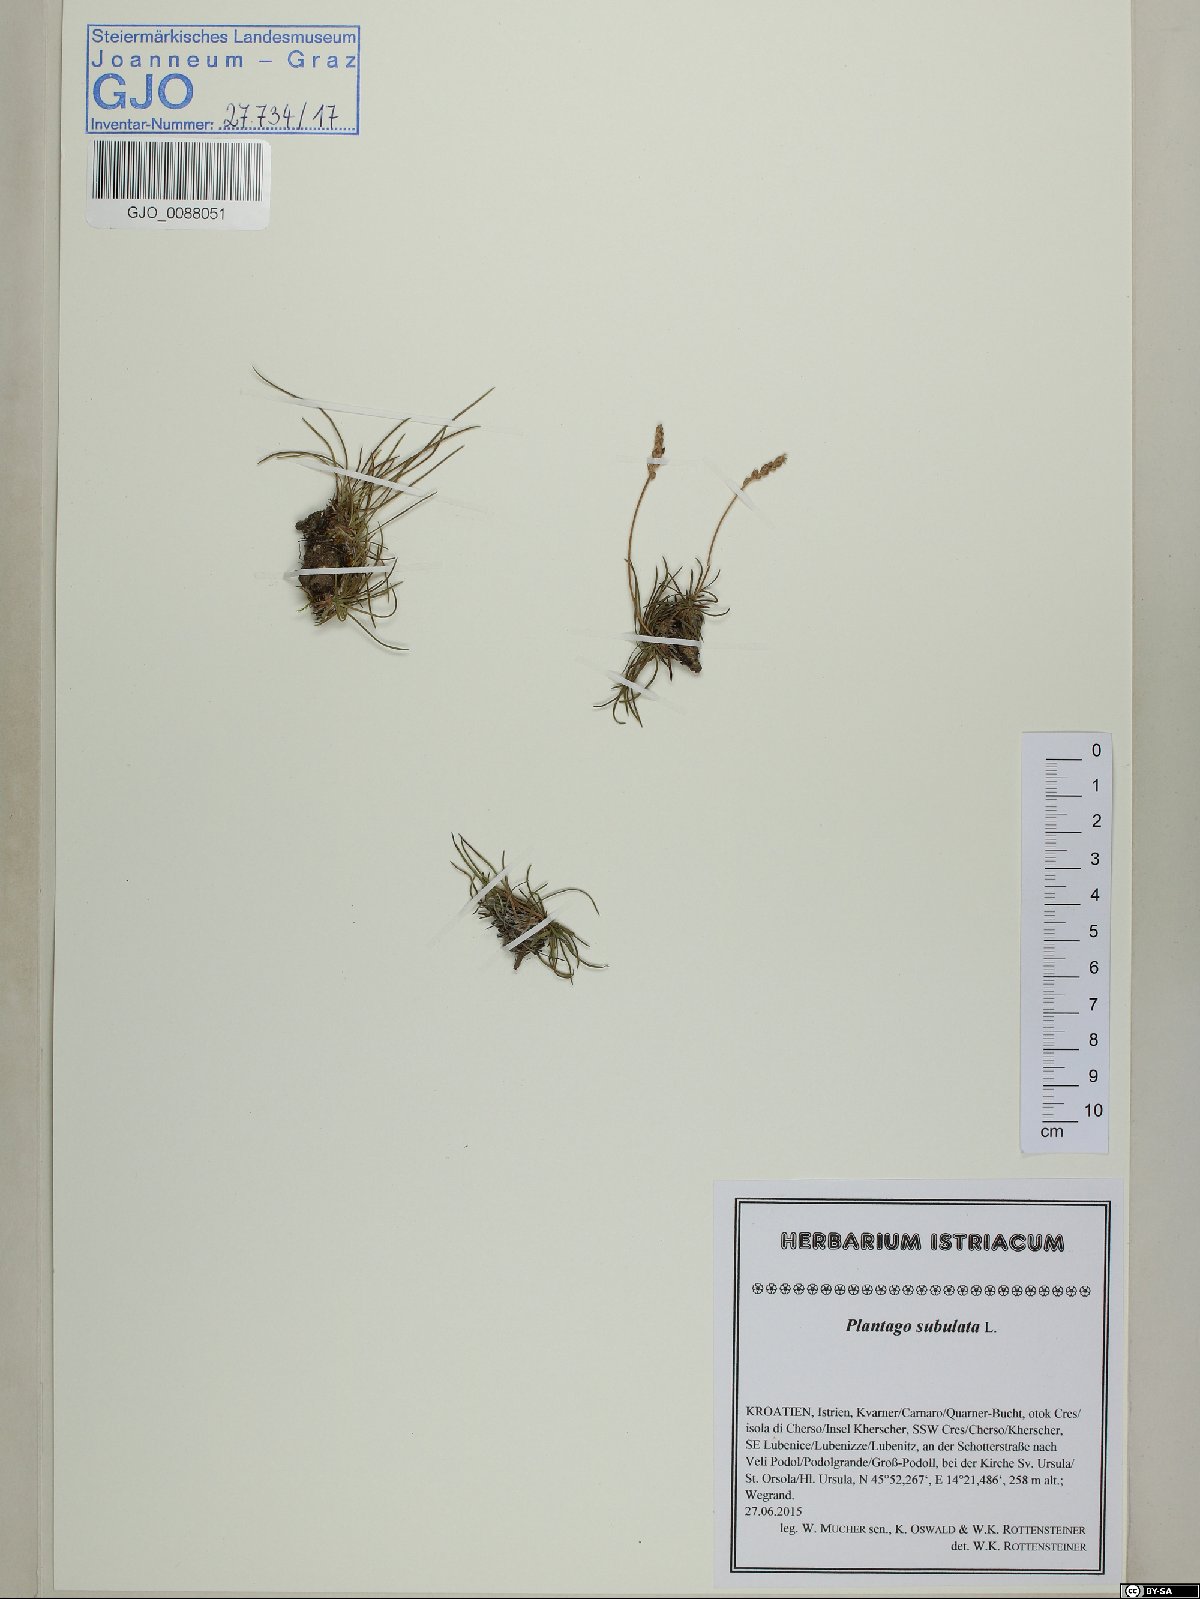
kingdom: Plantae
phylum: Tracheophyta
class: Magnoliopsida
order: Lamiales
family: Plantaginaceae
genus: Plantago
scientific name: Plantago subulata
